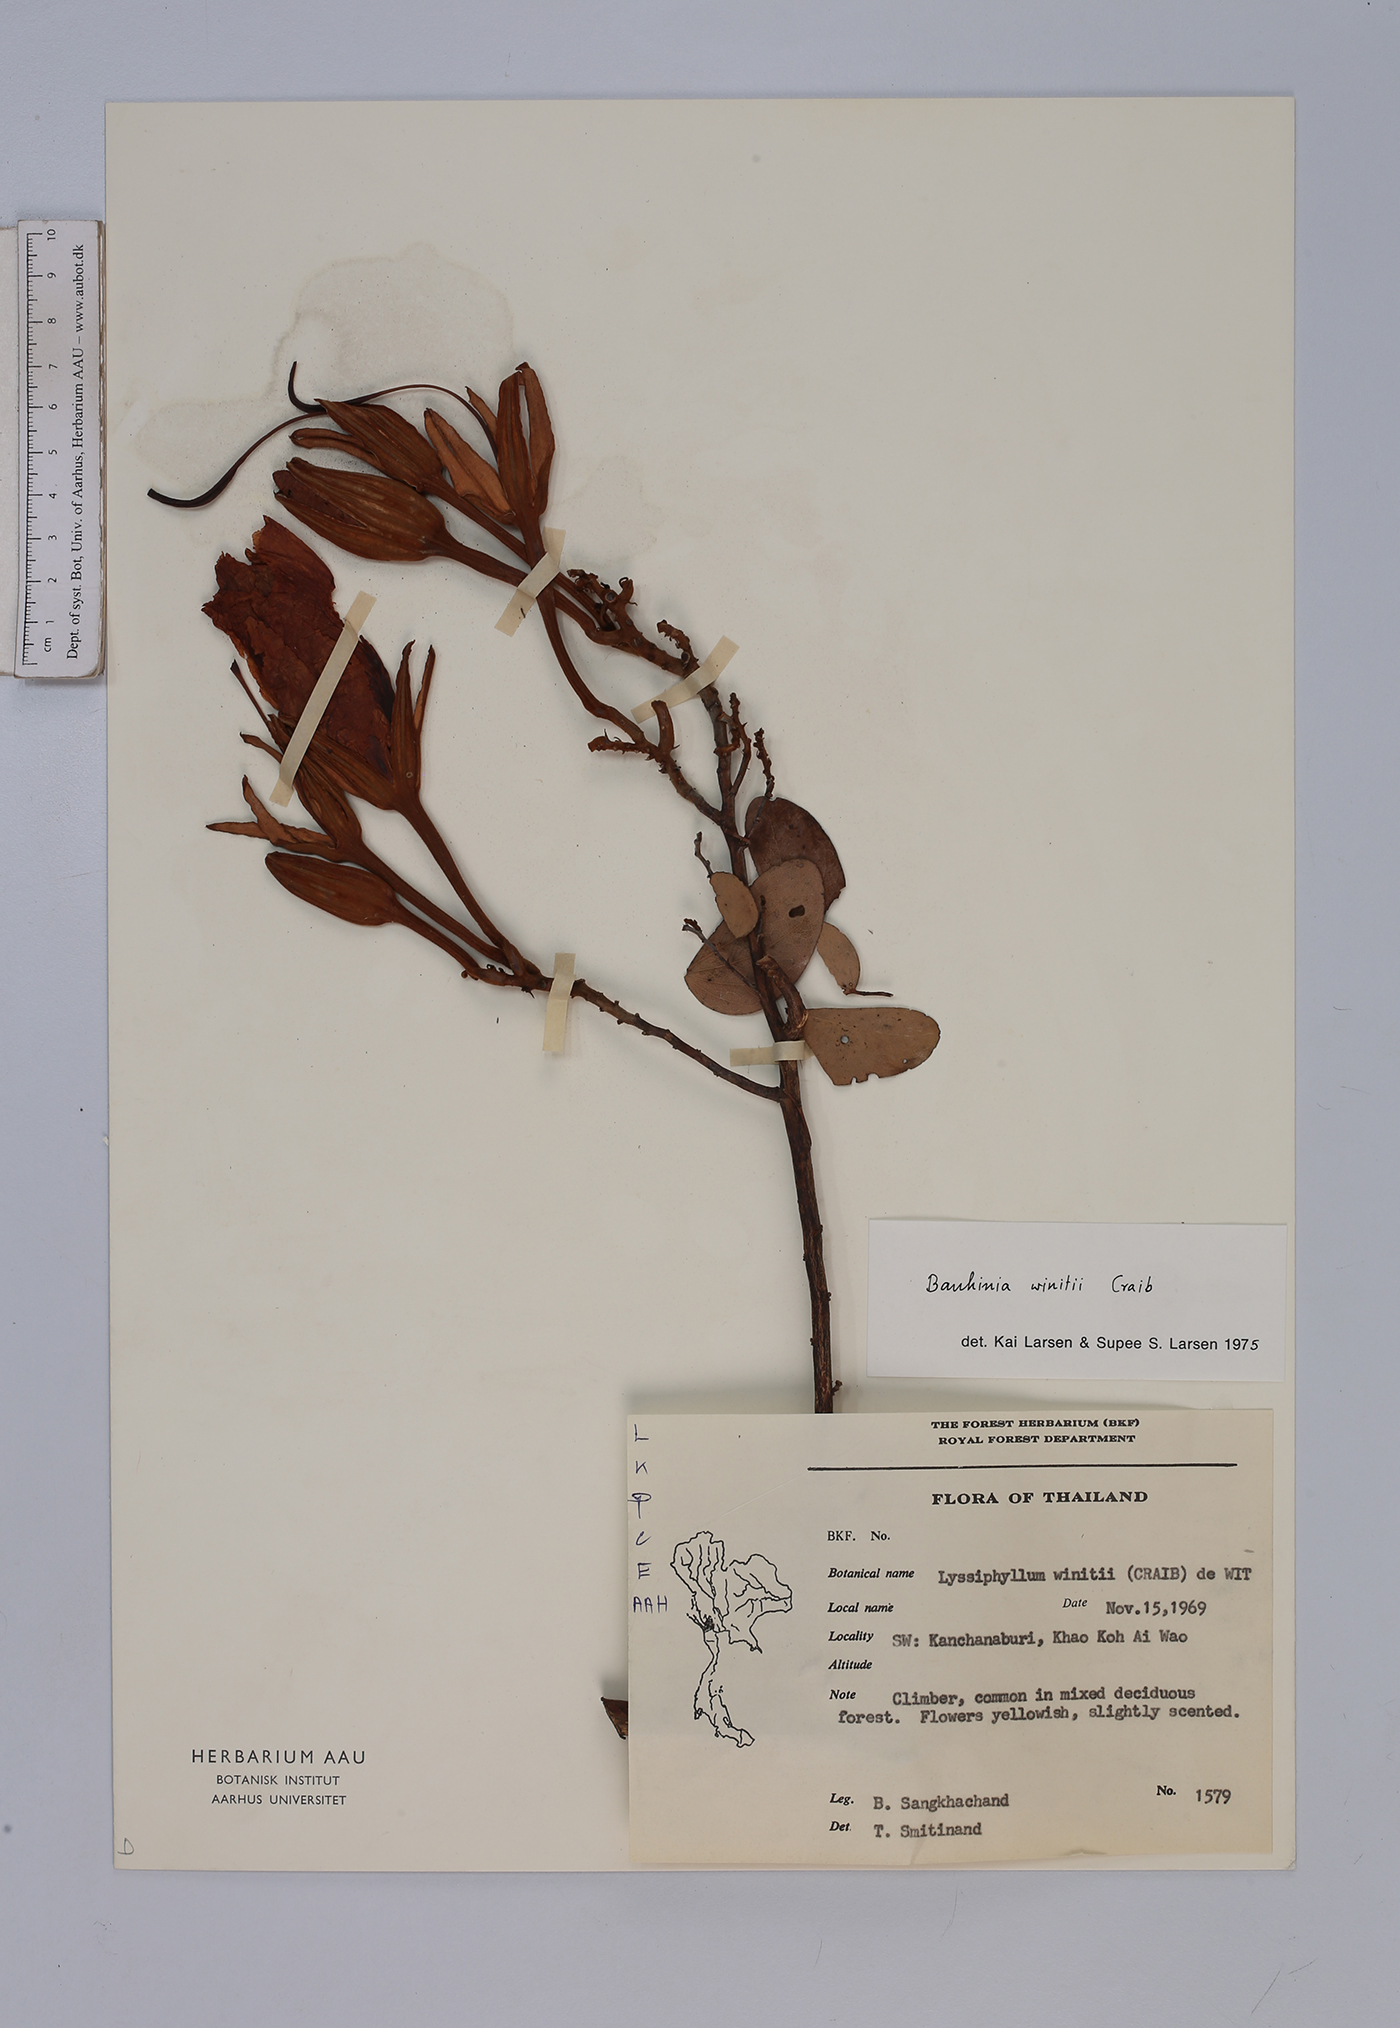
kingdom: Plantae
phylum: Tracheophyta
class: Magnoliopsida
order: Fabales
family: Fabaceae
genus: Lysiphyllum
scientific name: Lysiphyllum winitii
